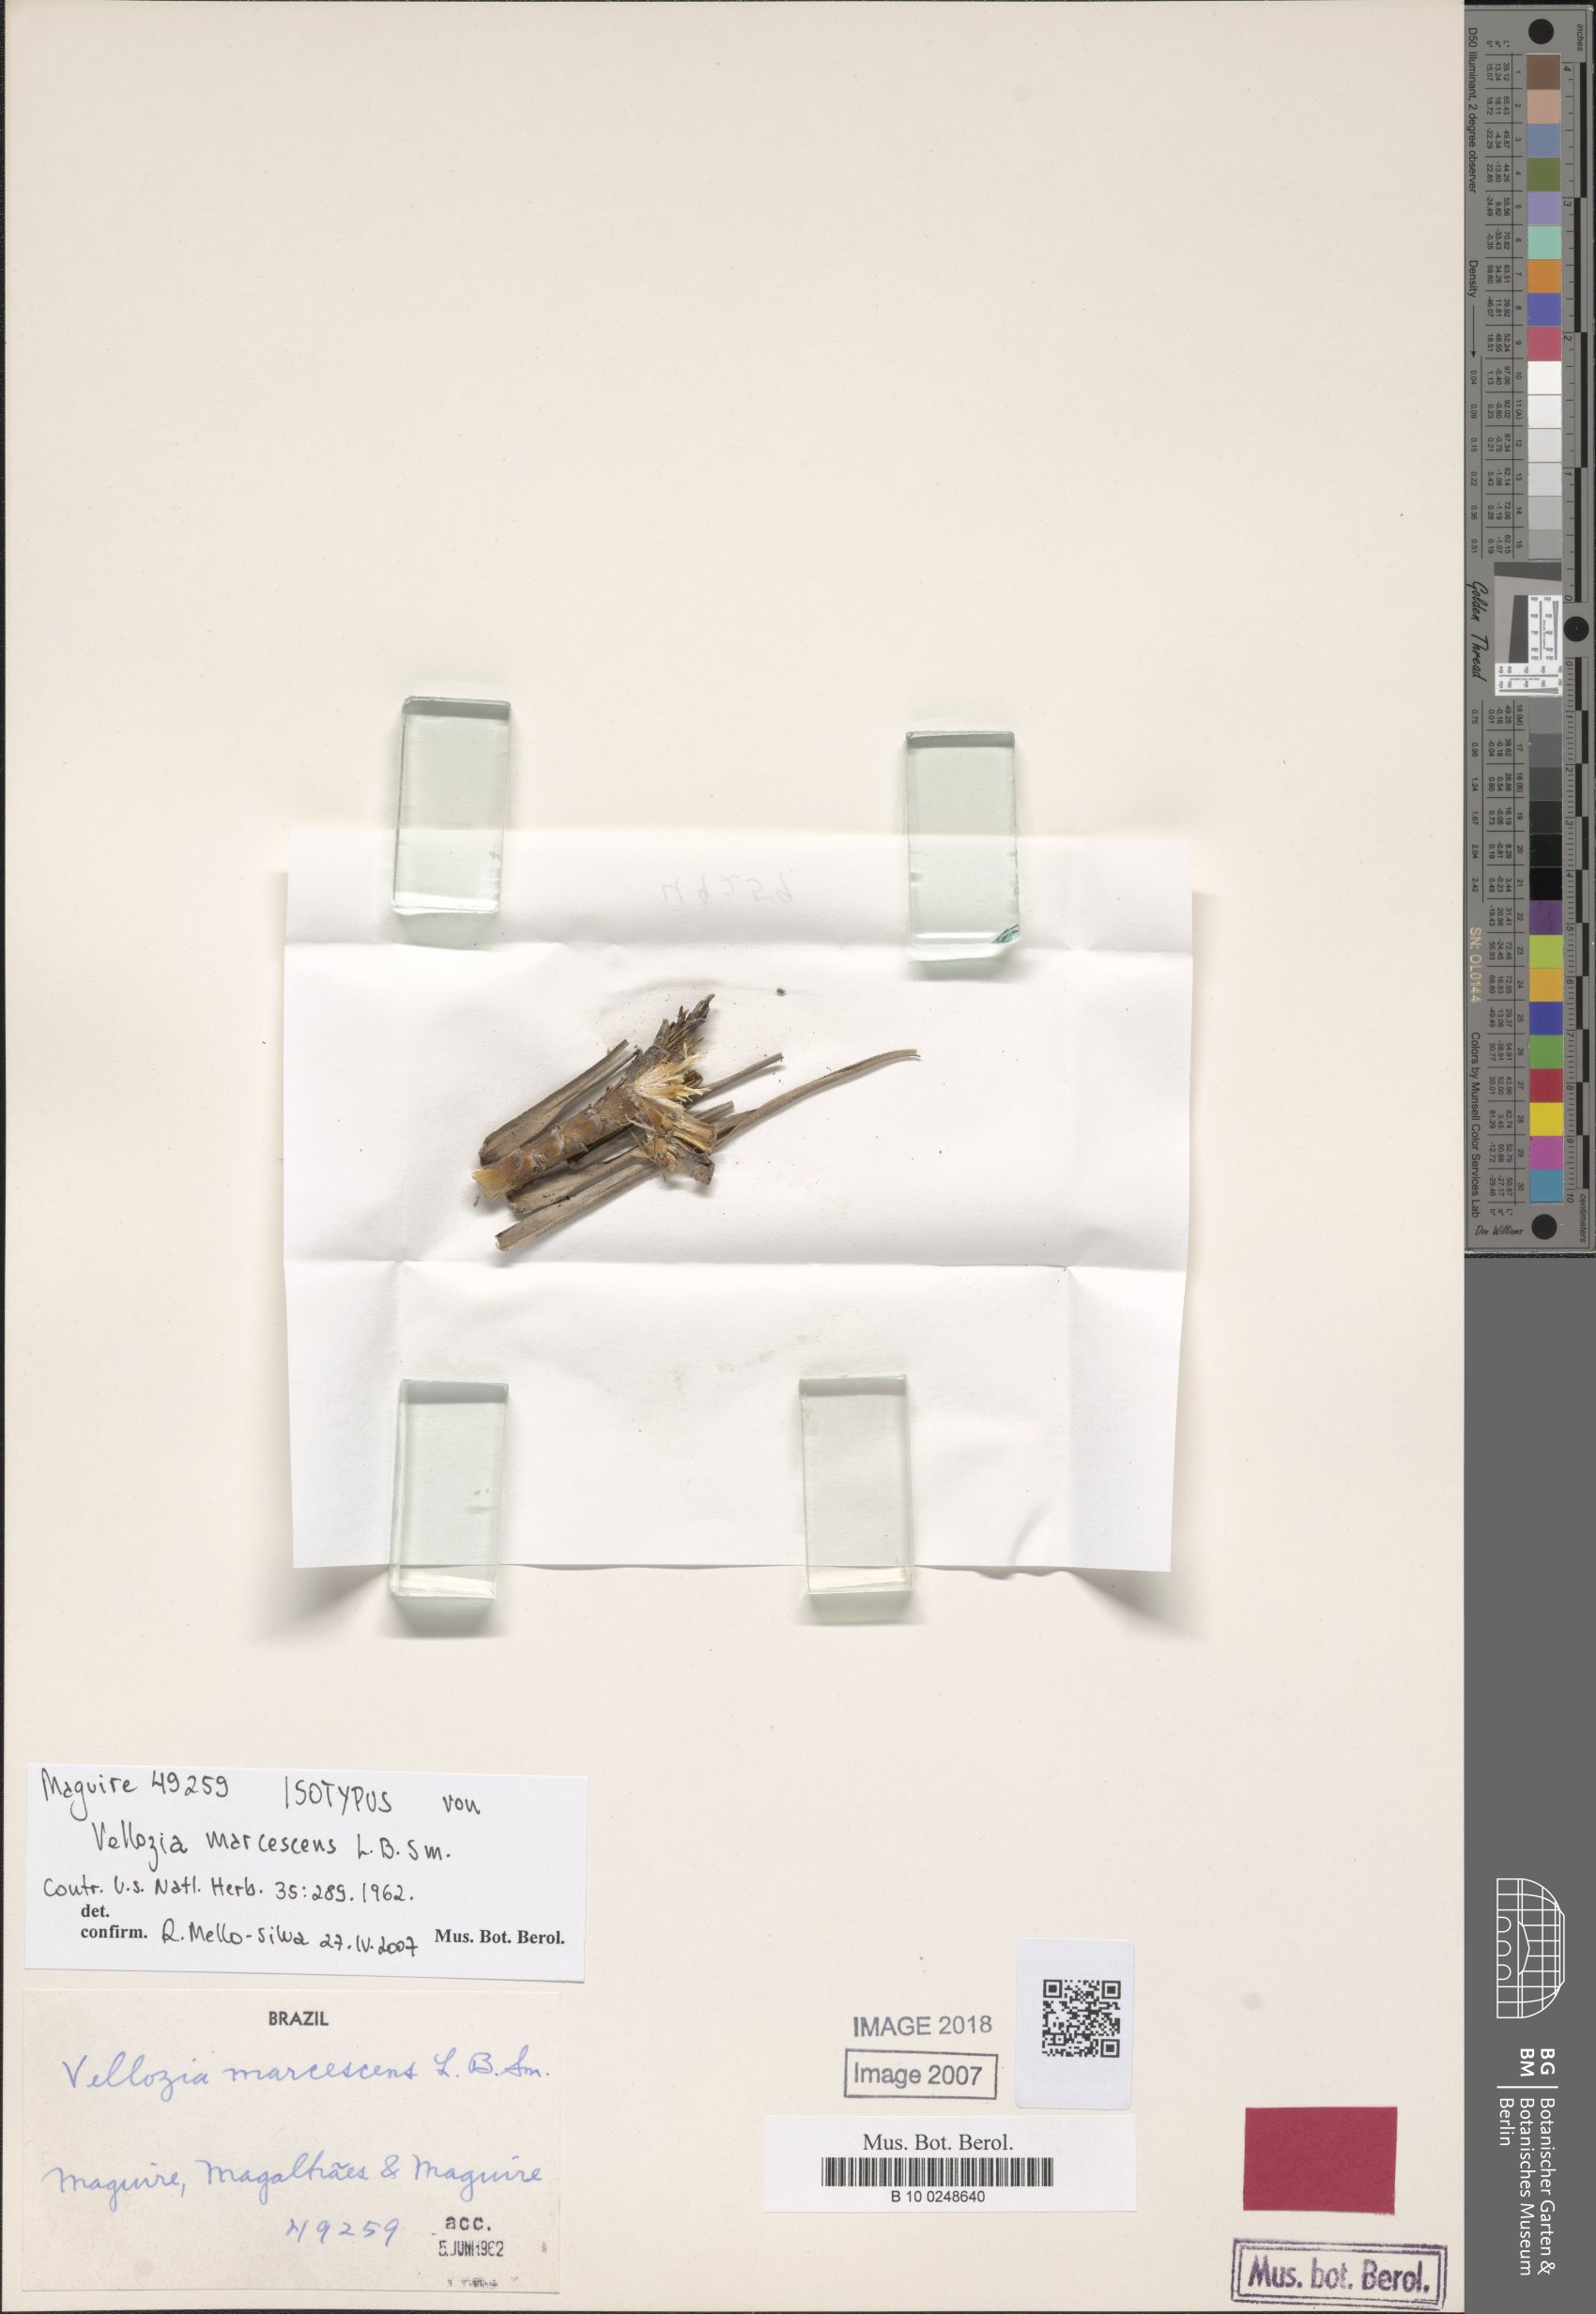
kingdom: Plantae
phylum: Tracheophyta
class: Liliopsida
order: Pandanales
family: Velloziaceae
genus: Vellozia
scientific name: Vellozia marcescens
